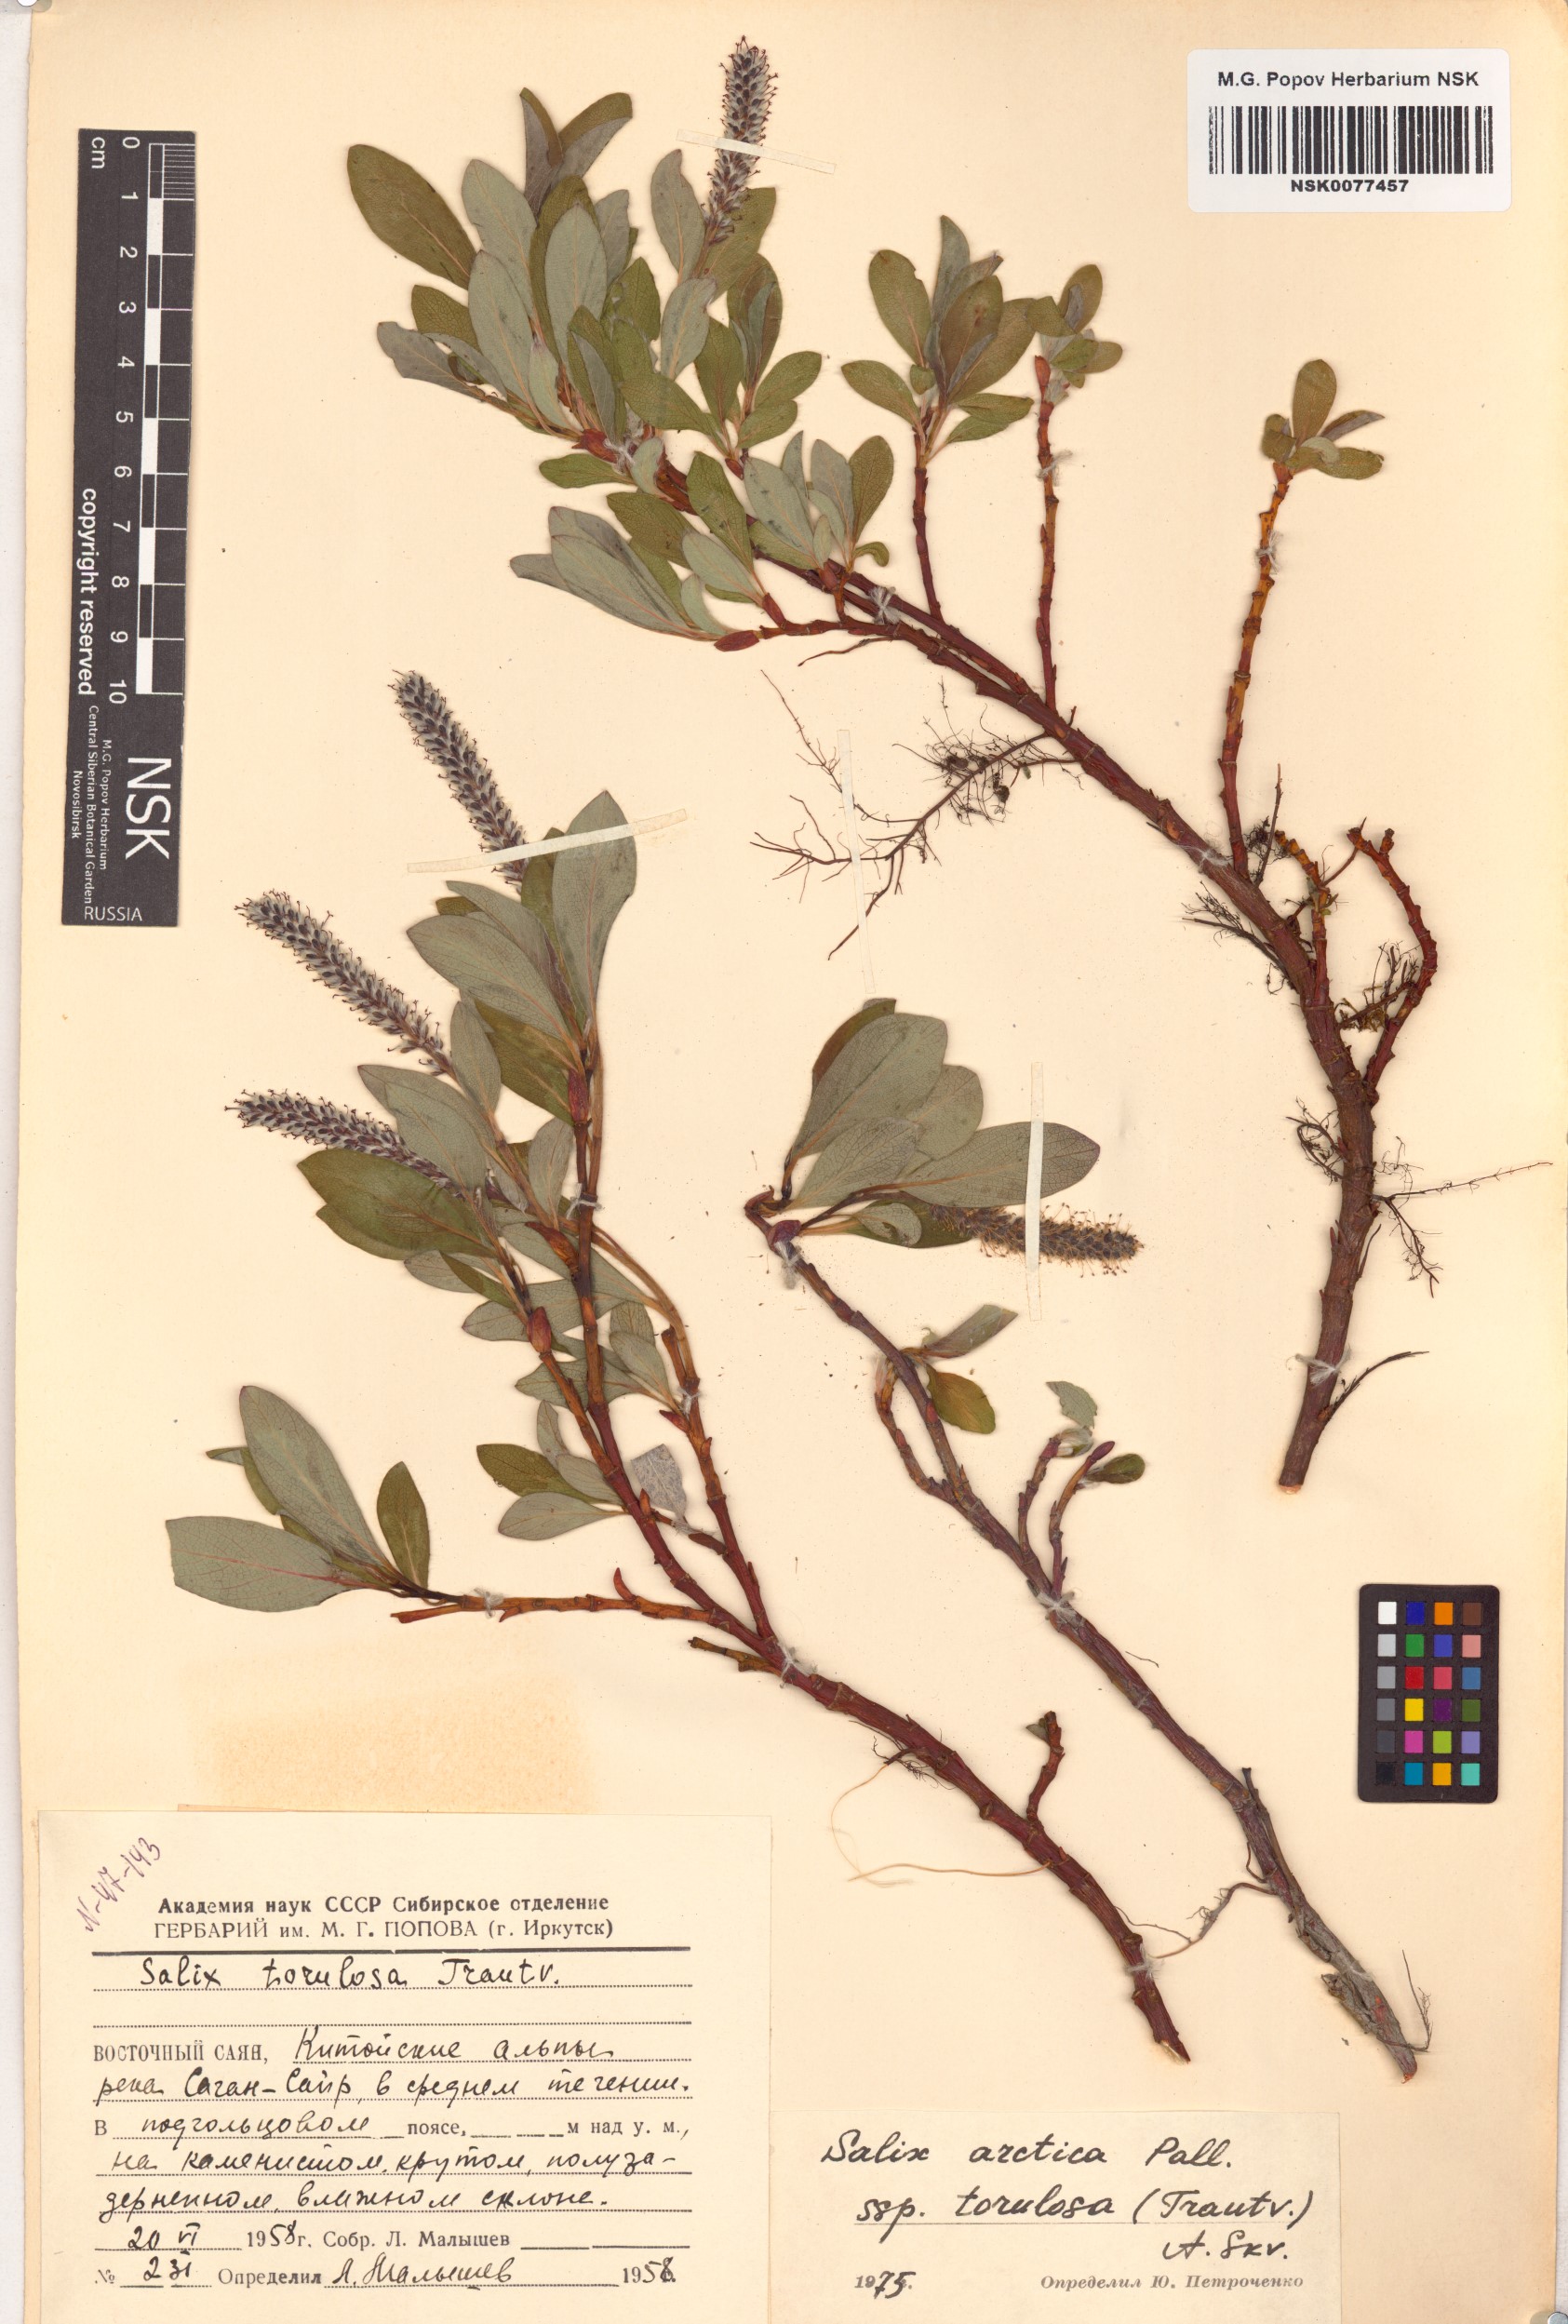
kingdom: Plantae
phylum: Tracheophyta
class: Magnoliopsida
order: Malpighiales
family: Salicaceae
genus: Salix
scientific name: Salix arctica
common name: Arctic willow
